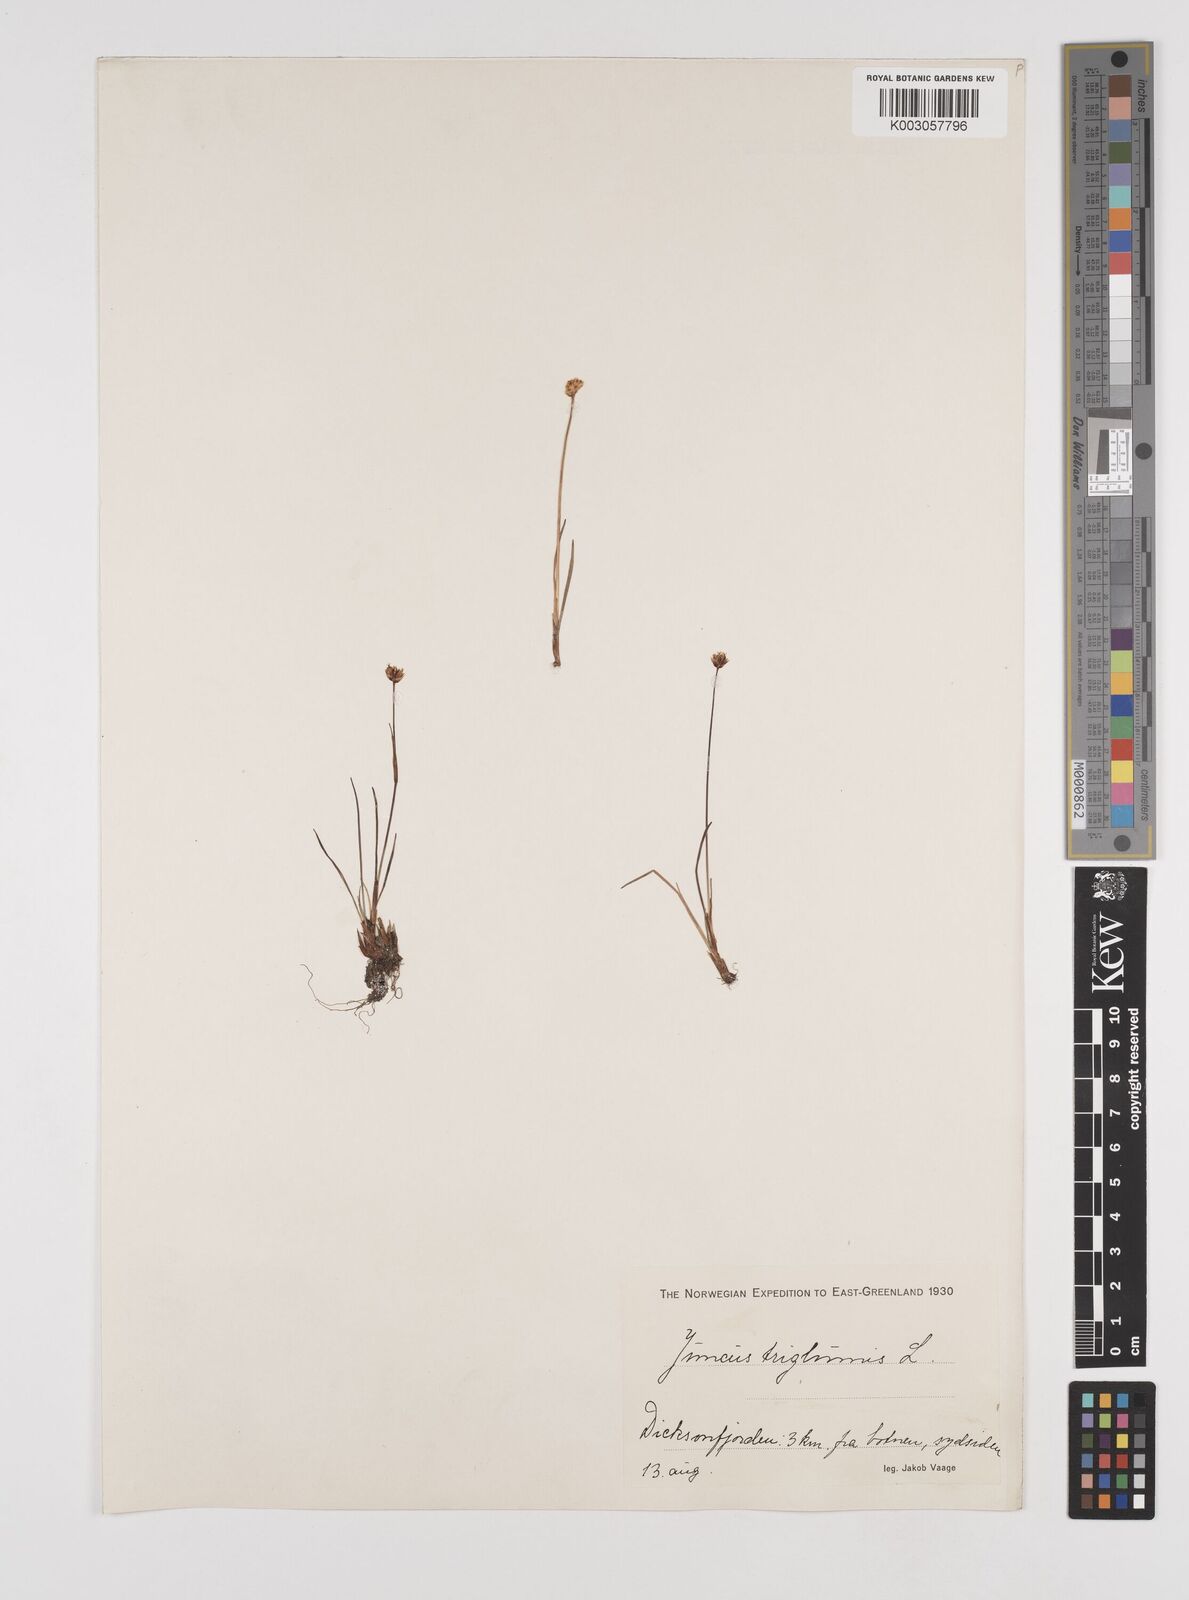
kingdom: Plantae
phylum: Tracheophyta
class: Liliopsida
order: Poales
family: Juncaceae
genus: Juncus
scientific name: Juncus triglumis
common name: Three-flowered rush
